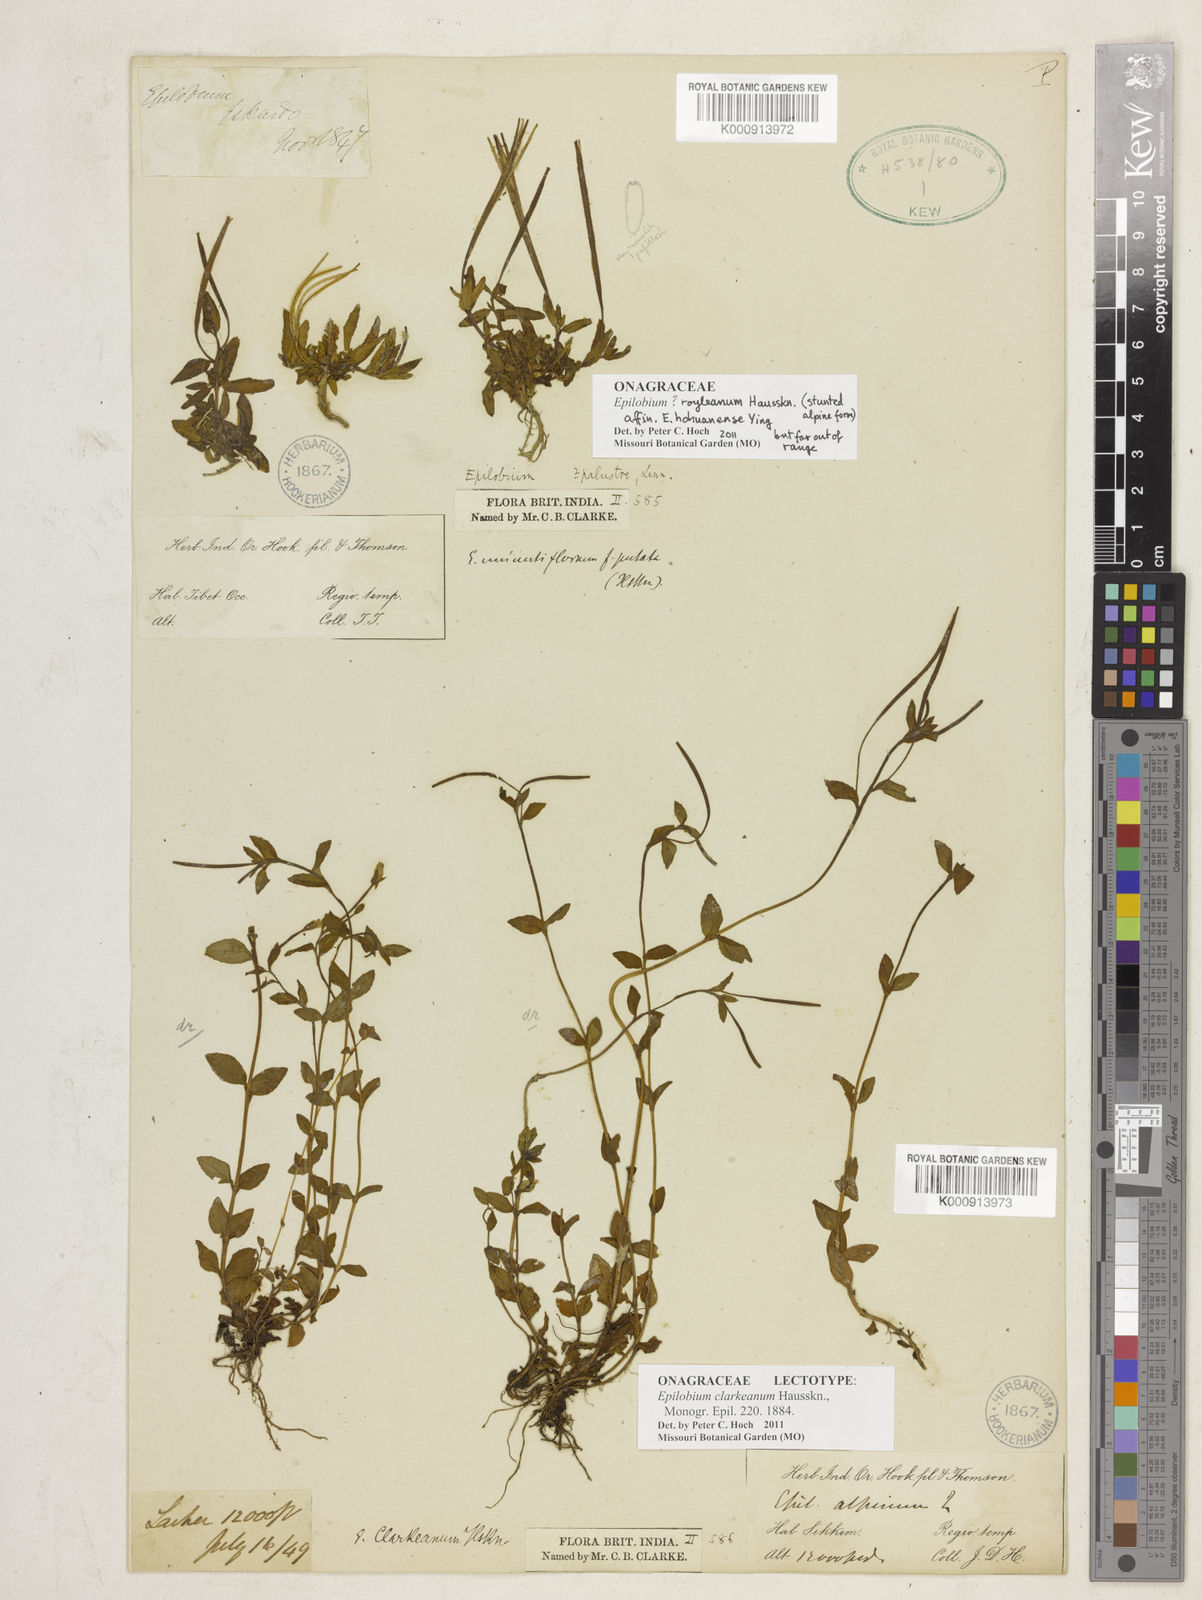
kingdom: Plantae
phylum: Tracheophyta
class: Magnoliopsida
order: Myrtales
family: Onagraceae
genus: Epilobium
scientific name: Epilobium clarkeanum
